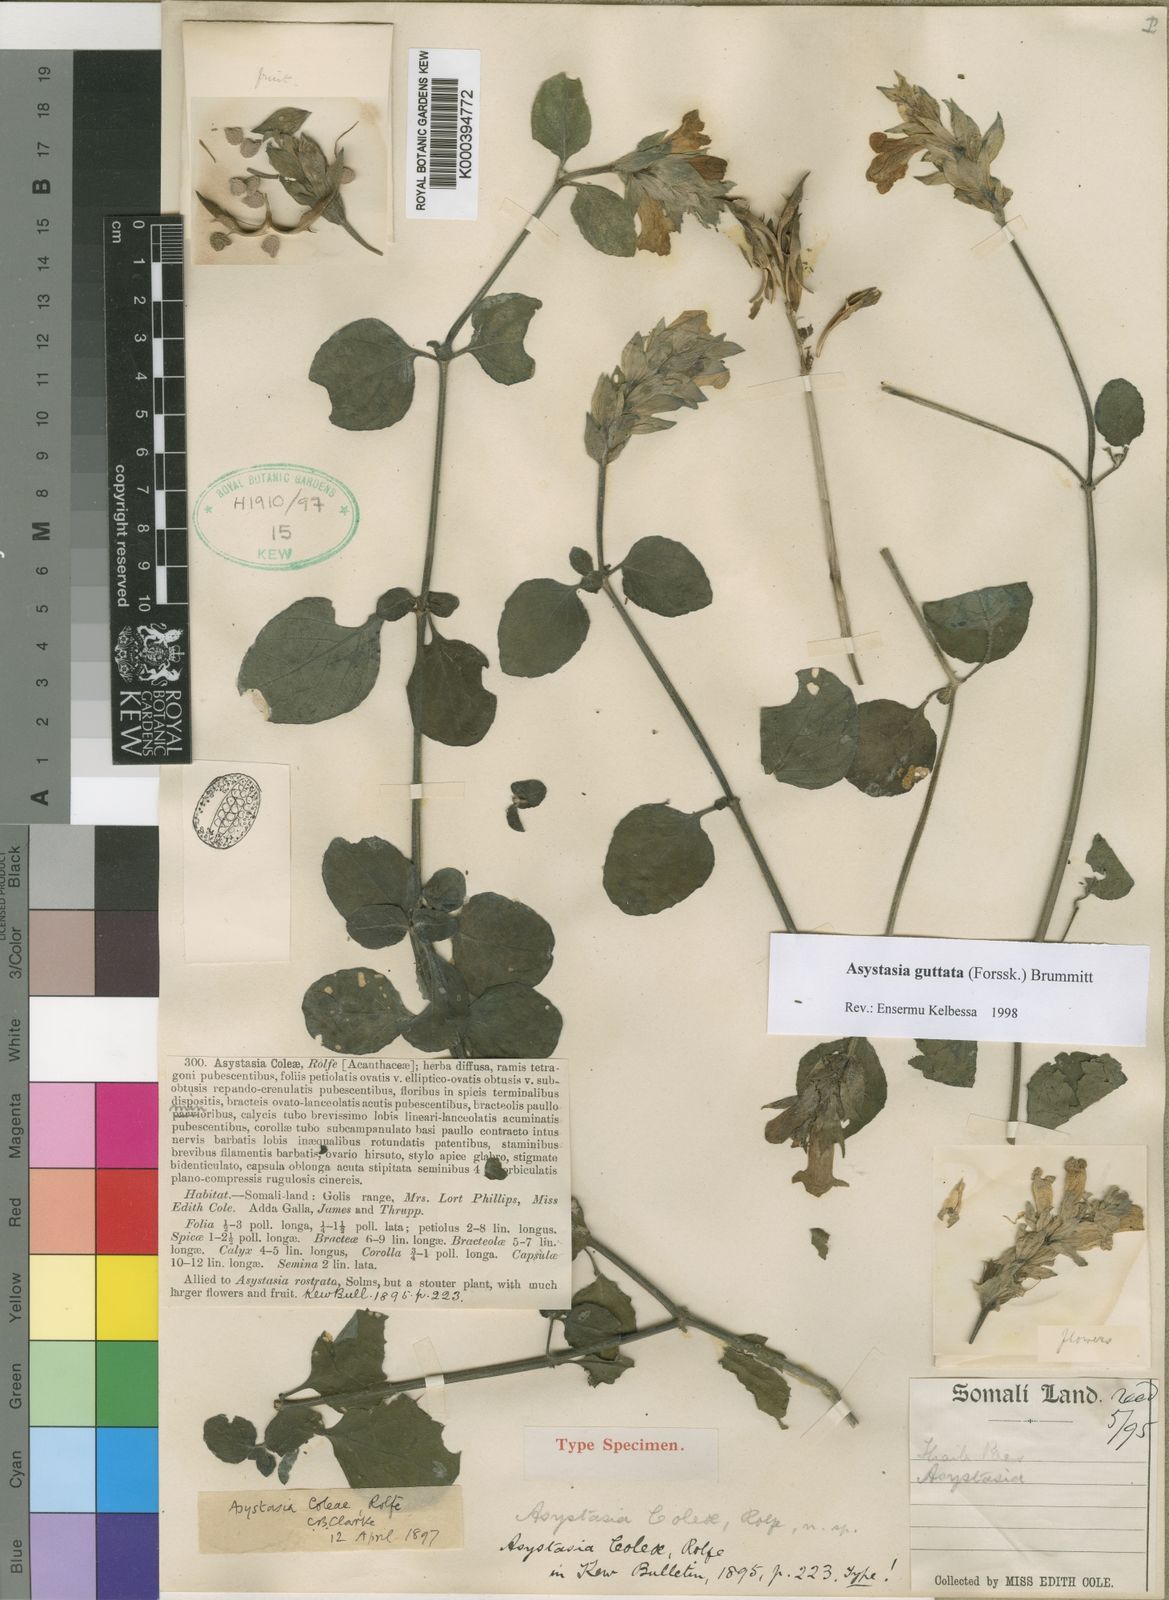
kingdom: Plantae
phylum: Tracheophyta
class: Magnoliopsida
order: Lamiales
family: Acanthaceae
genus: Asystasia
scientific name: Asystasia guttata
